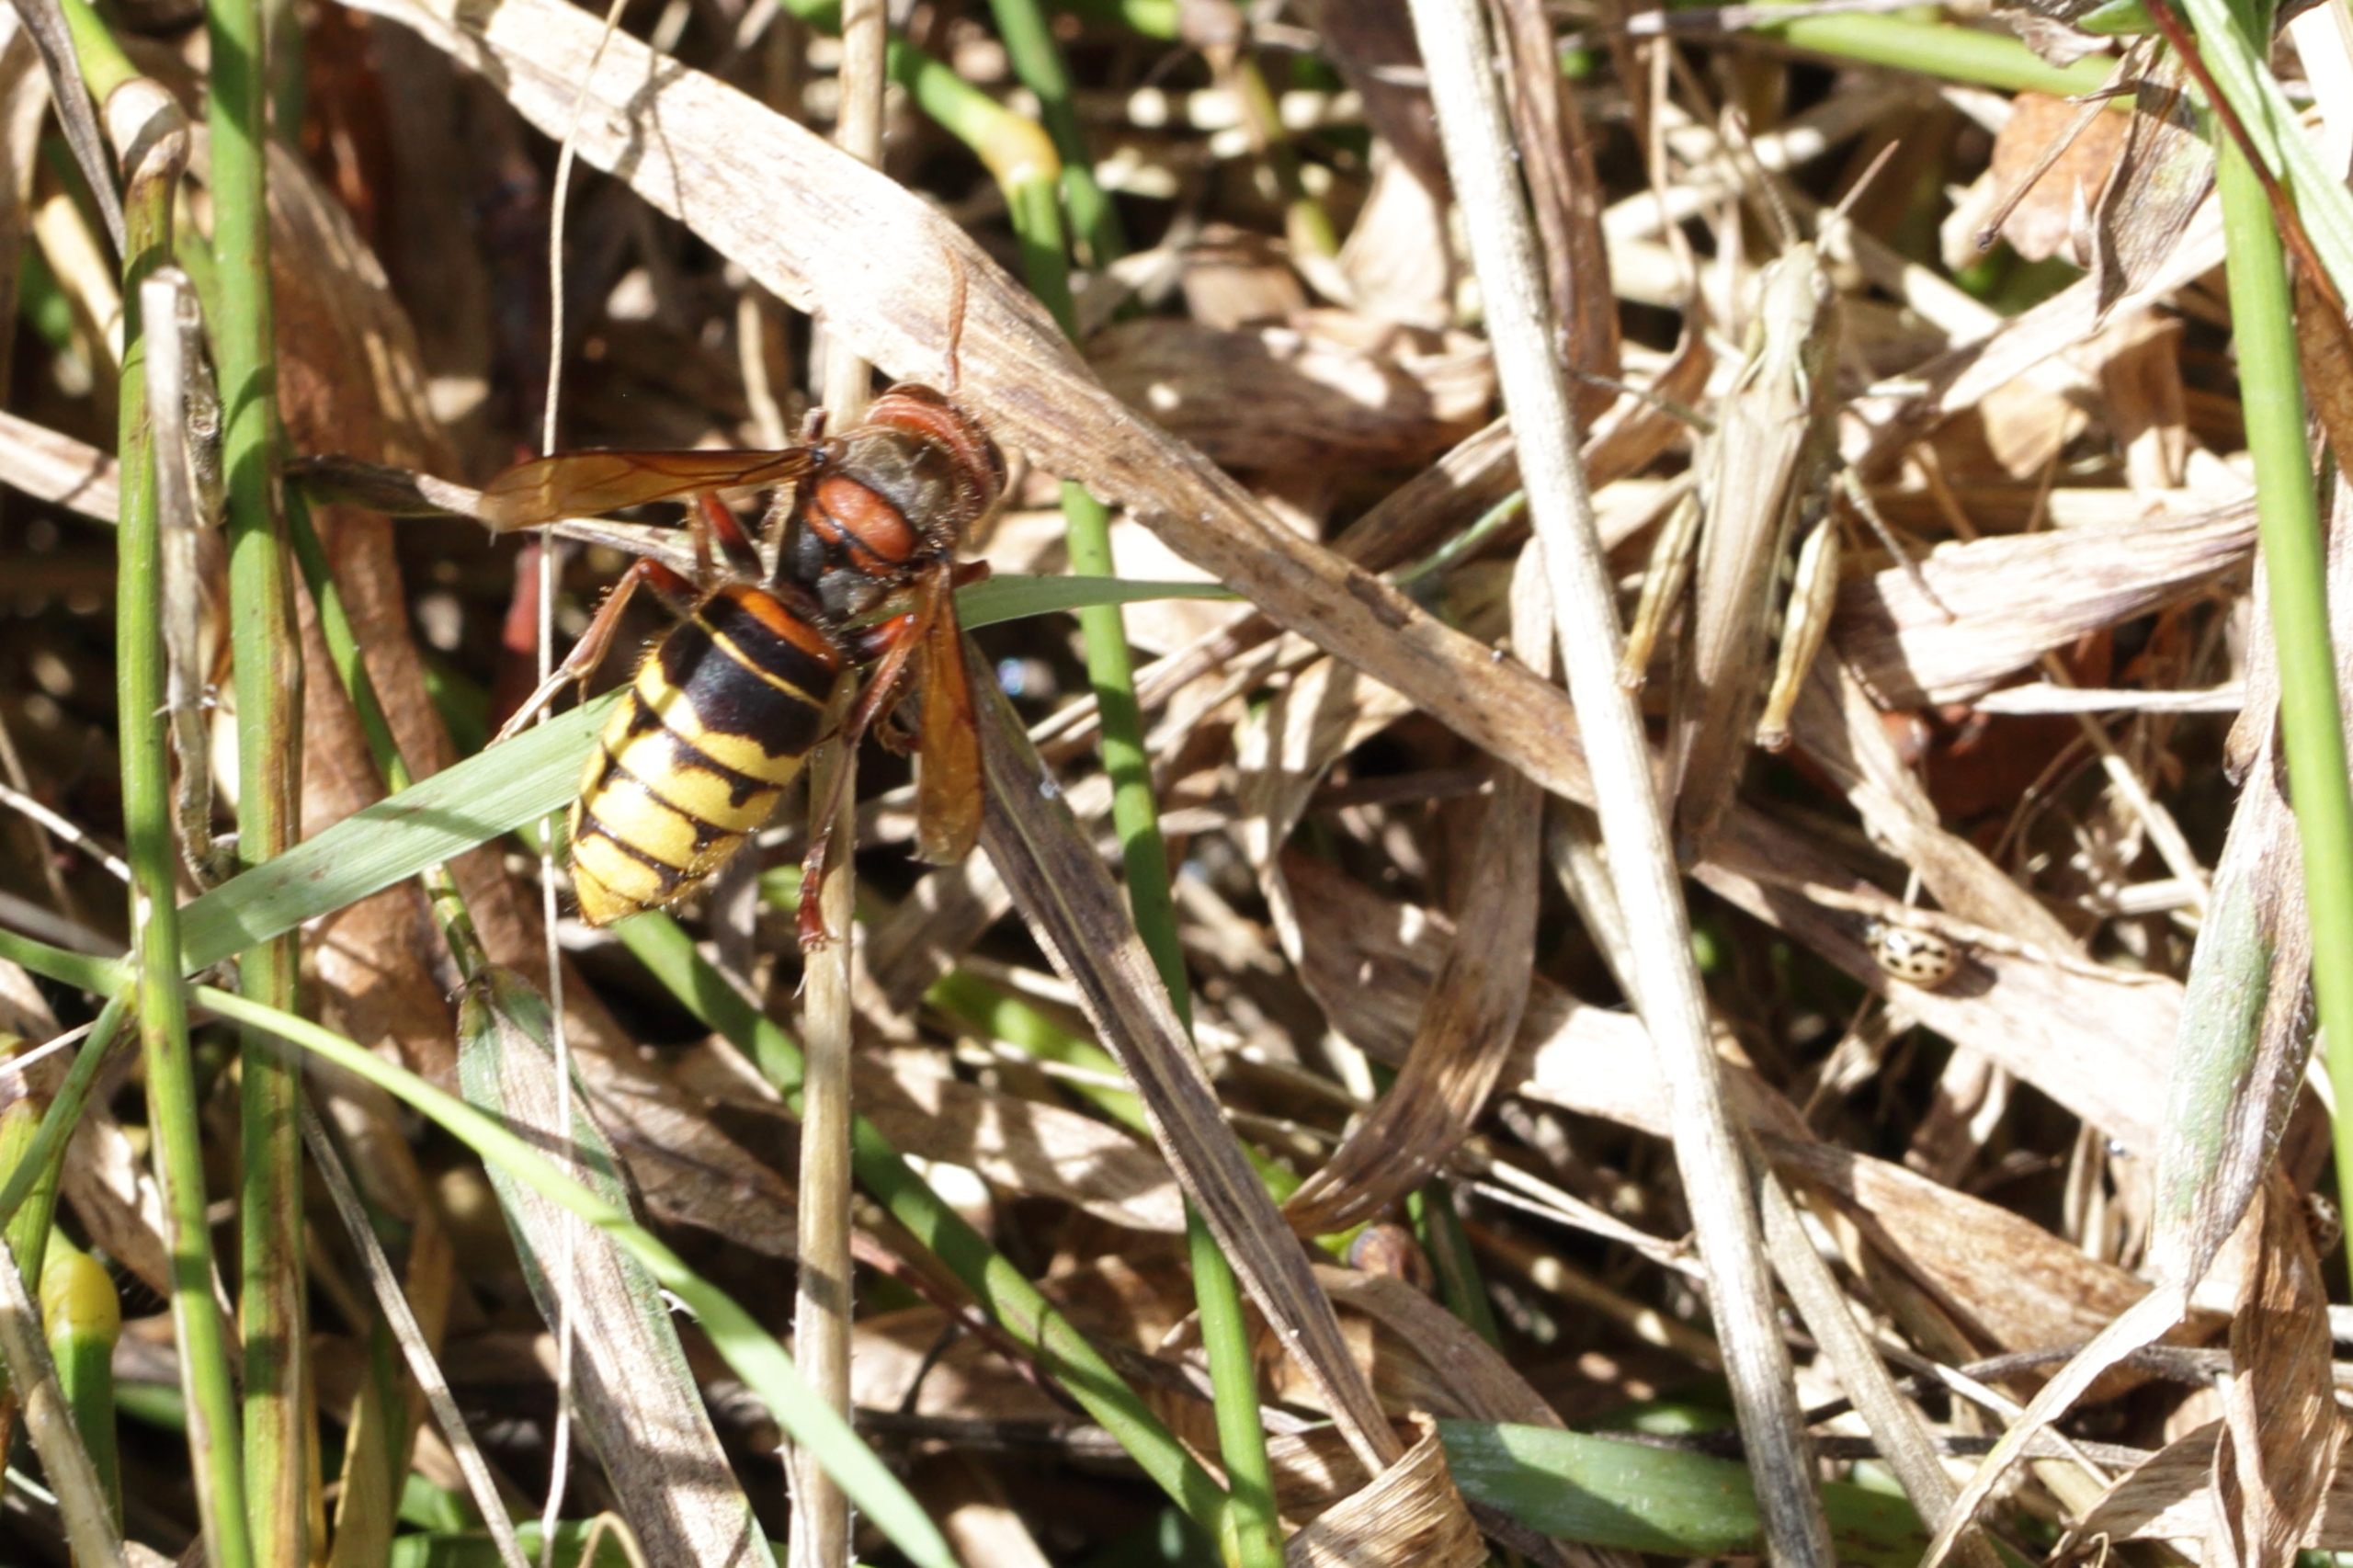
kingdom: Animalia
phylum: Arthropoda
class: Insecta
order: Hymenoptera
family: Vespidae
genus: Vespa
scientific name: Vespa crabro
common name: Stor gedehams
